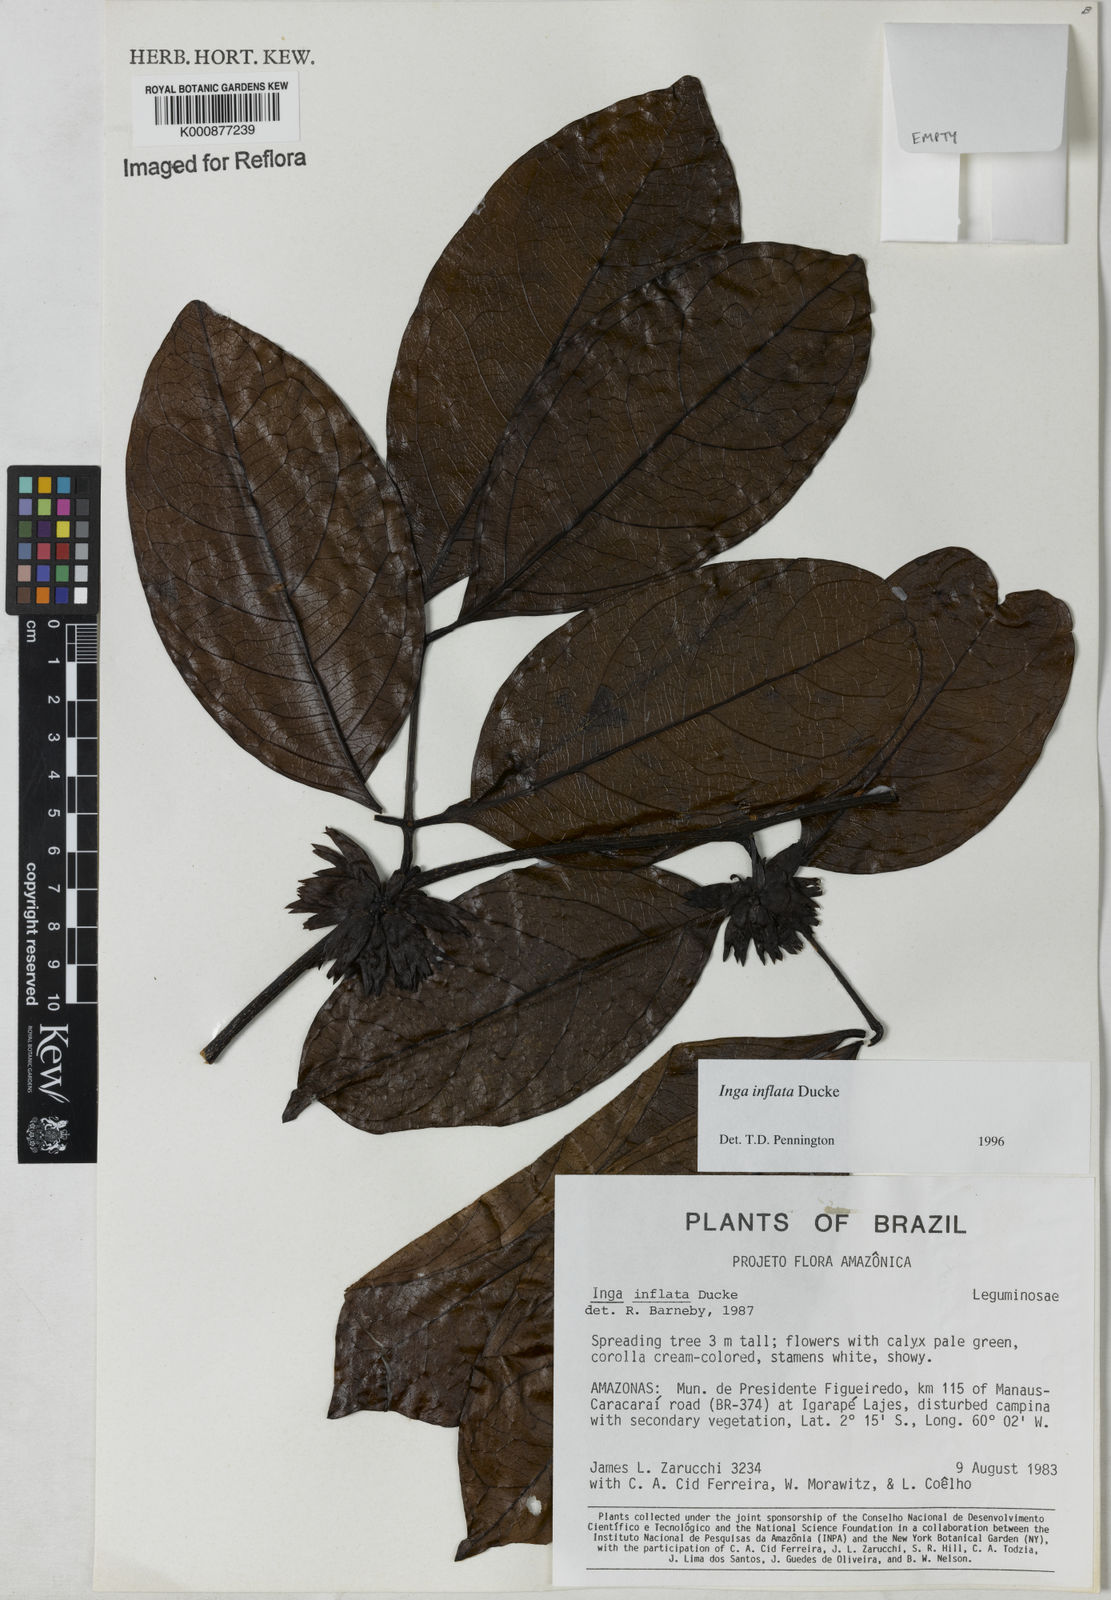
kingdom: Plantae
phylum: Tracheophyta
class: Magnoliopsida
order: Fabales
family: Fabaceae
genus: Inga
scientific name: Inga inflata
